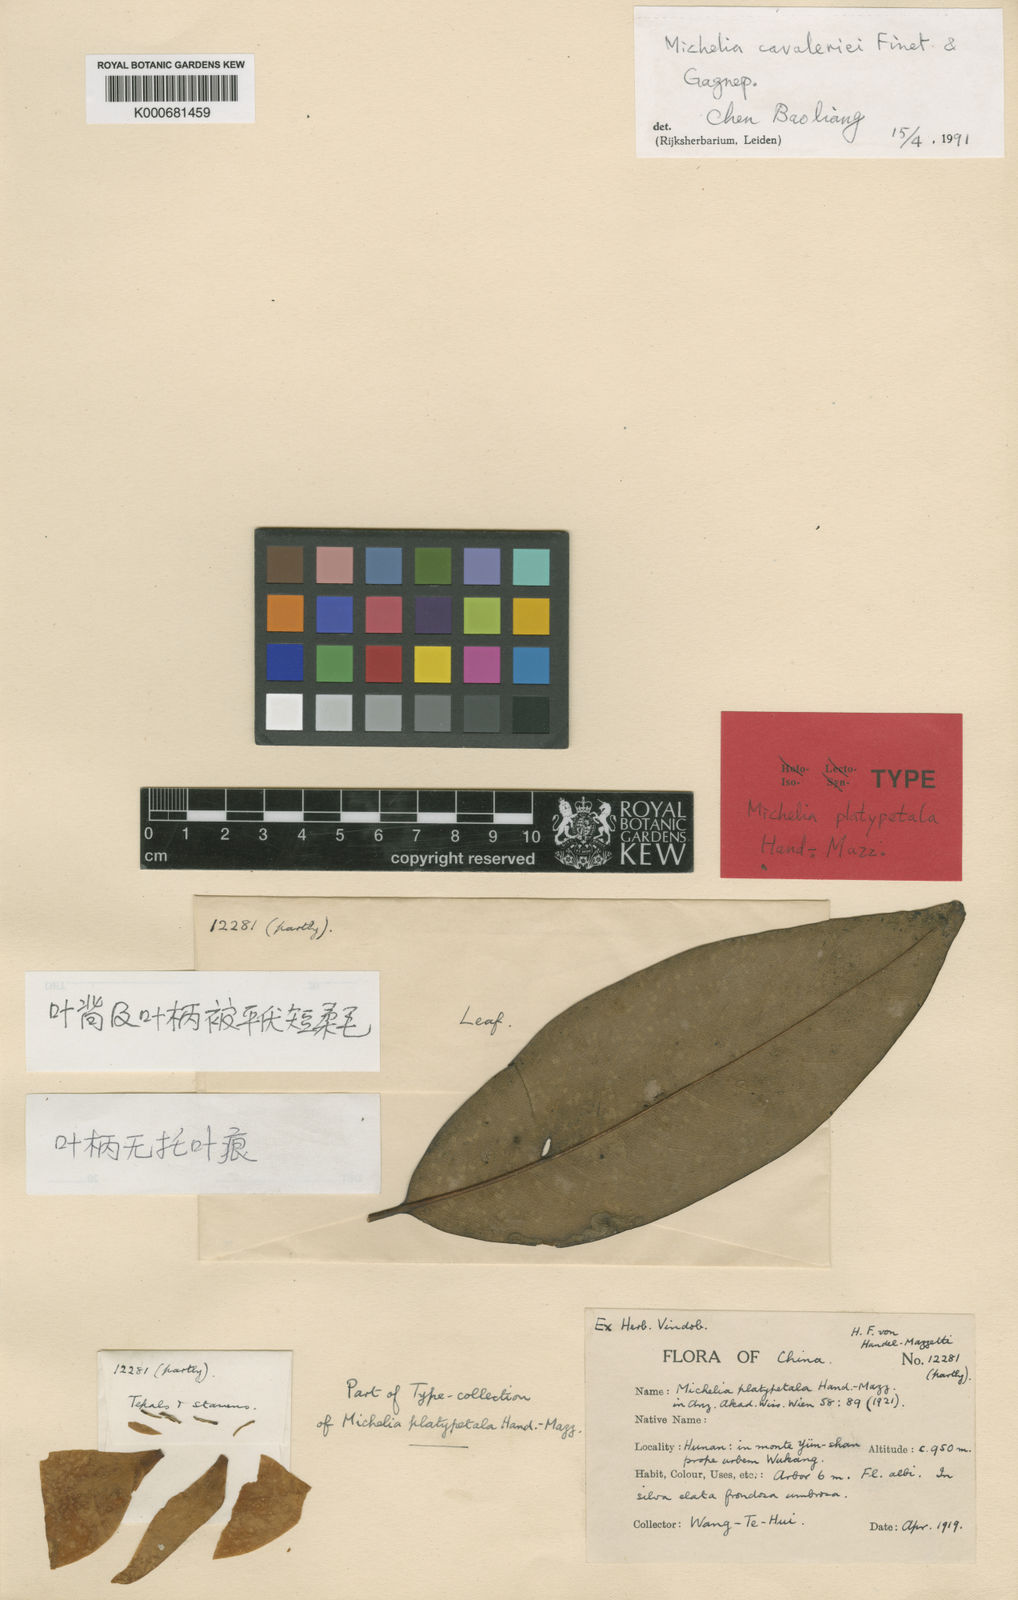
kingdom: Plantae
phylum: Tracheophyta
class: Magnoliopsida
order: Magnoliales
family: Magnoliaceae
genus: Magnolia
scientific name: Magnolia cavaleriei
